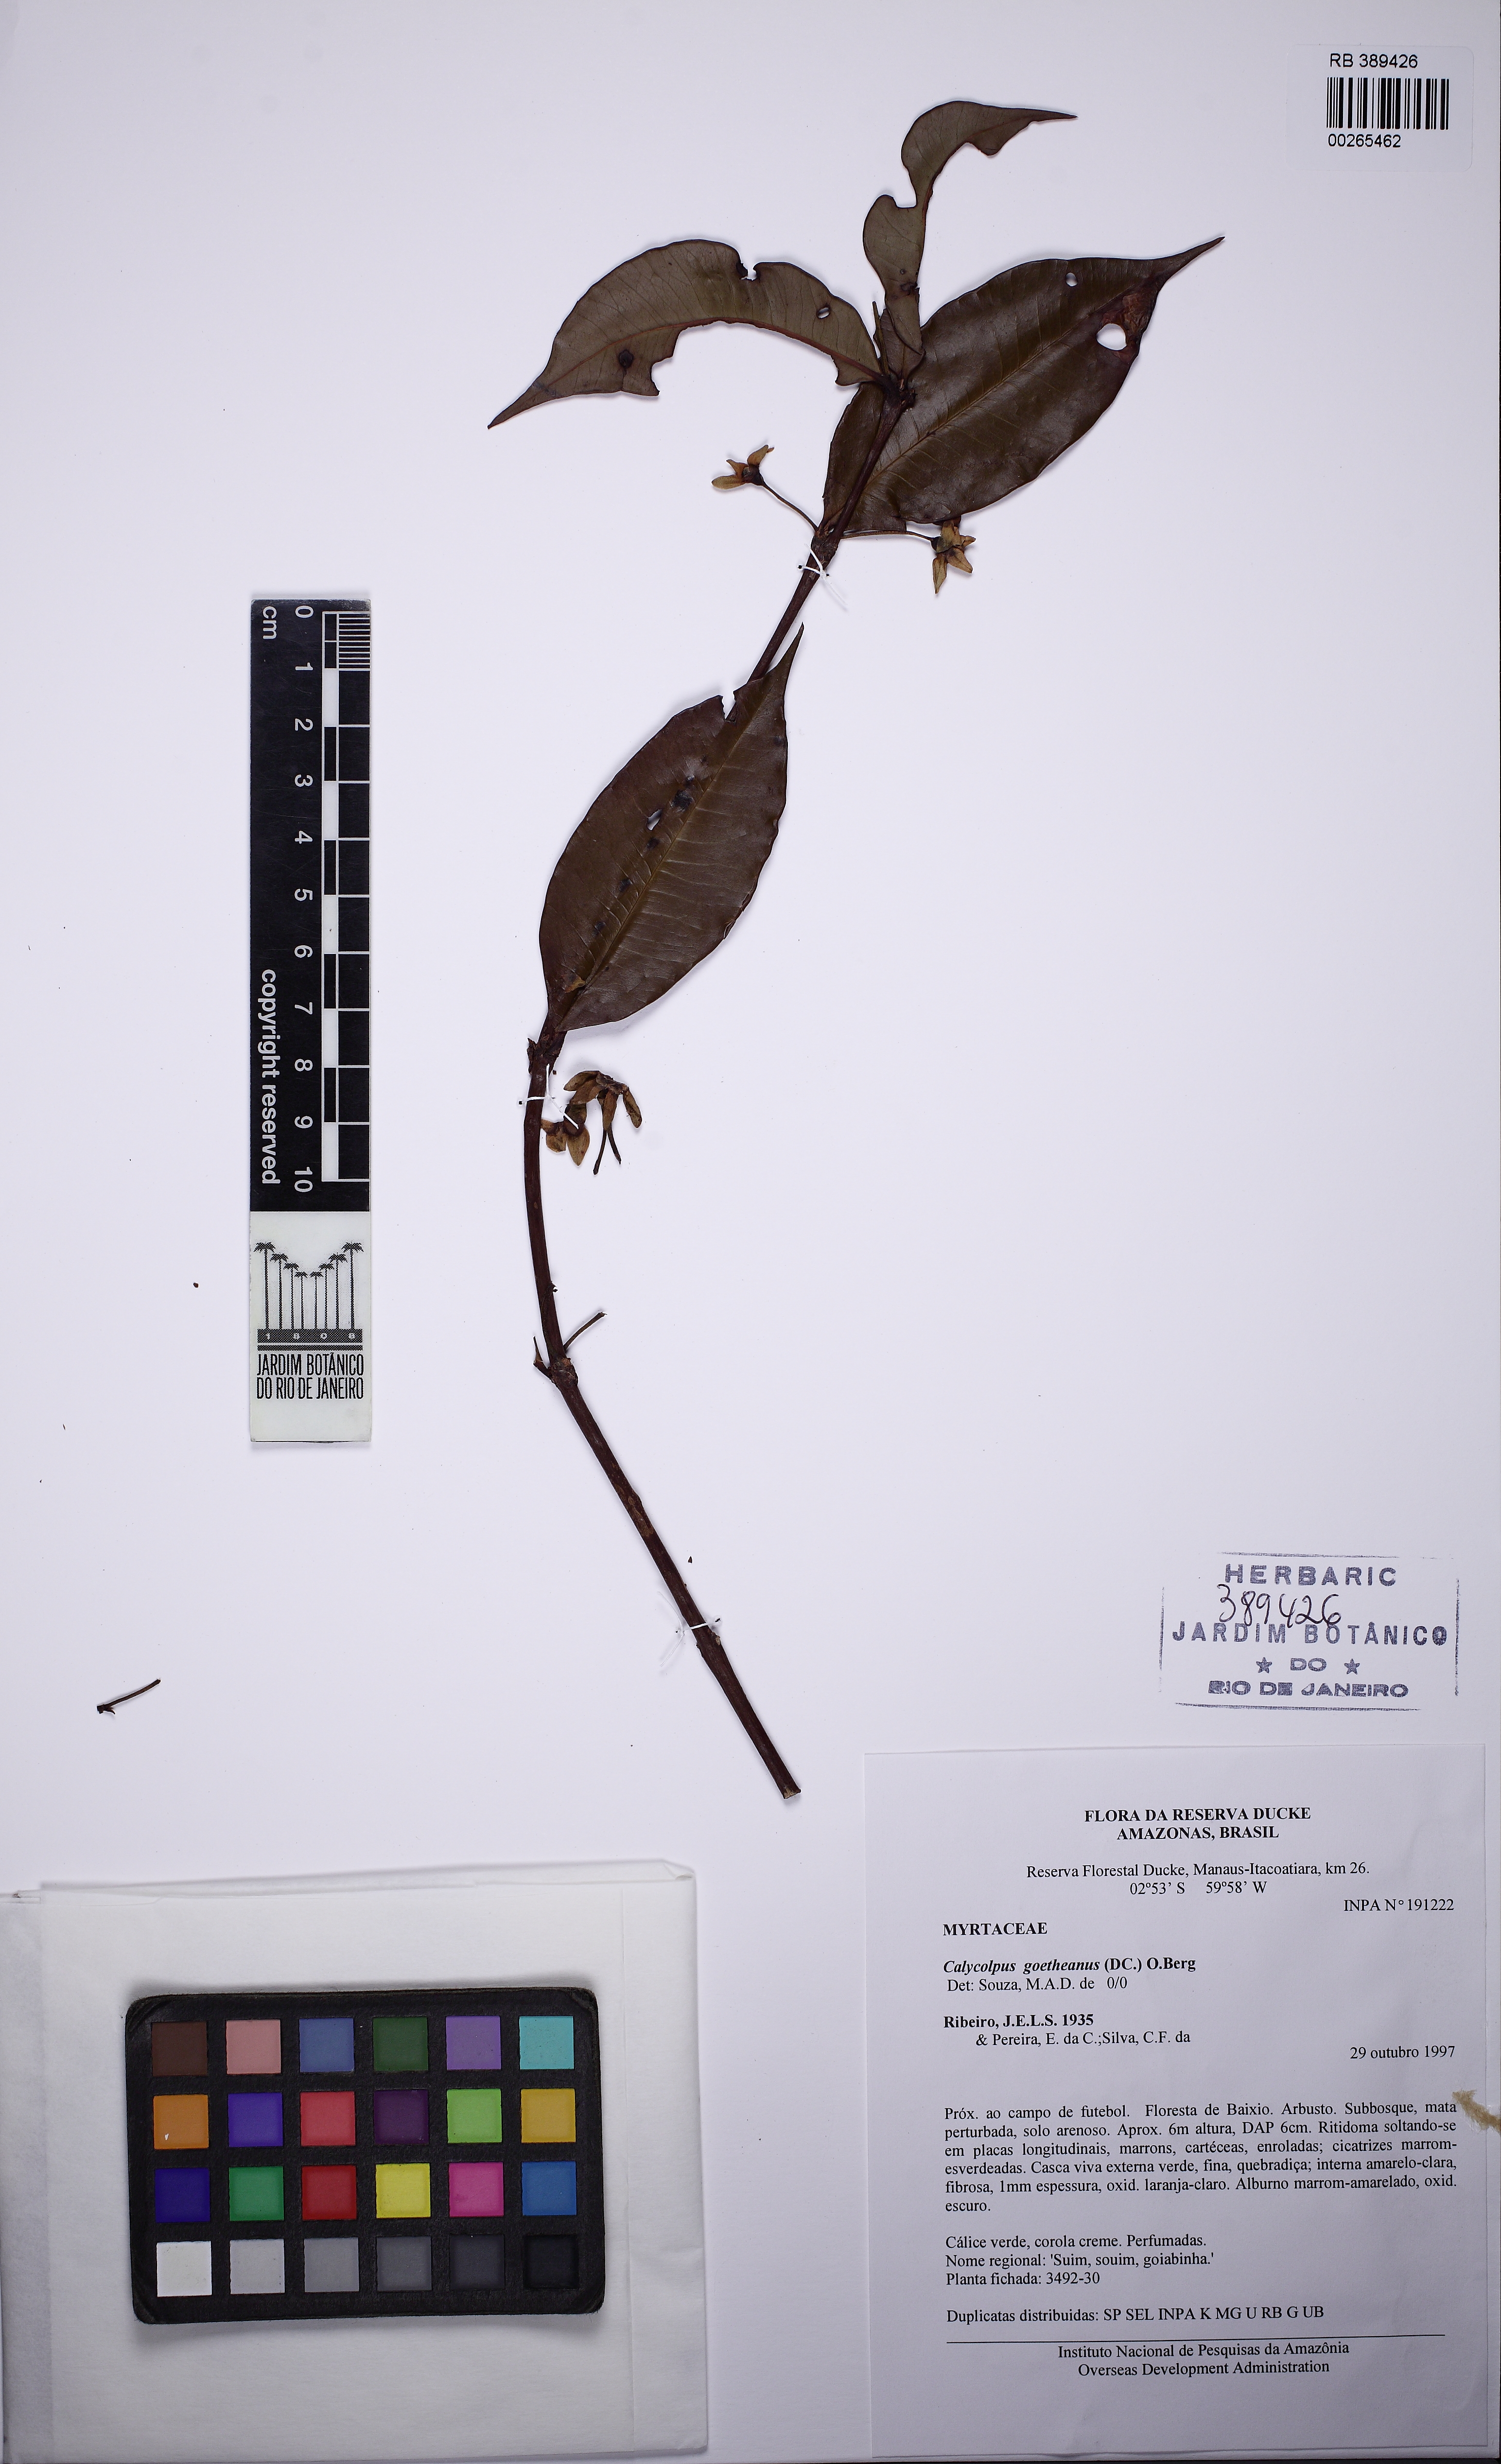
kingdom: Plantae
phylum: Tracheophyta
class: Magnoliopsida
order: Myrtales
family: Myrtaceae
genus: Calycolpus
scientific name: Calycolpus goetheanus
